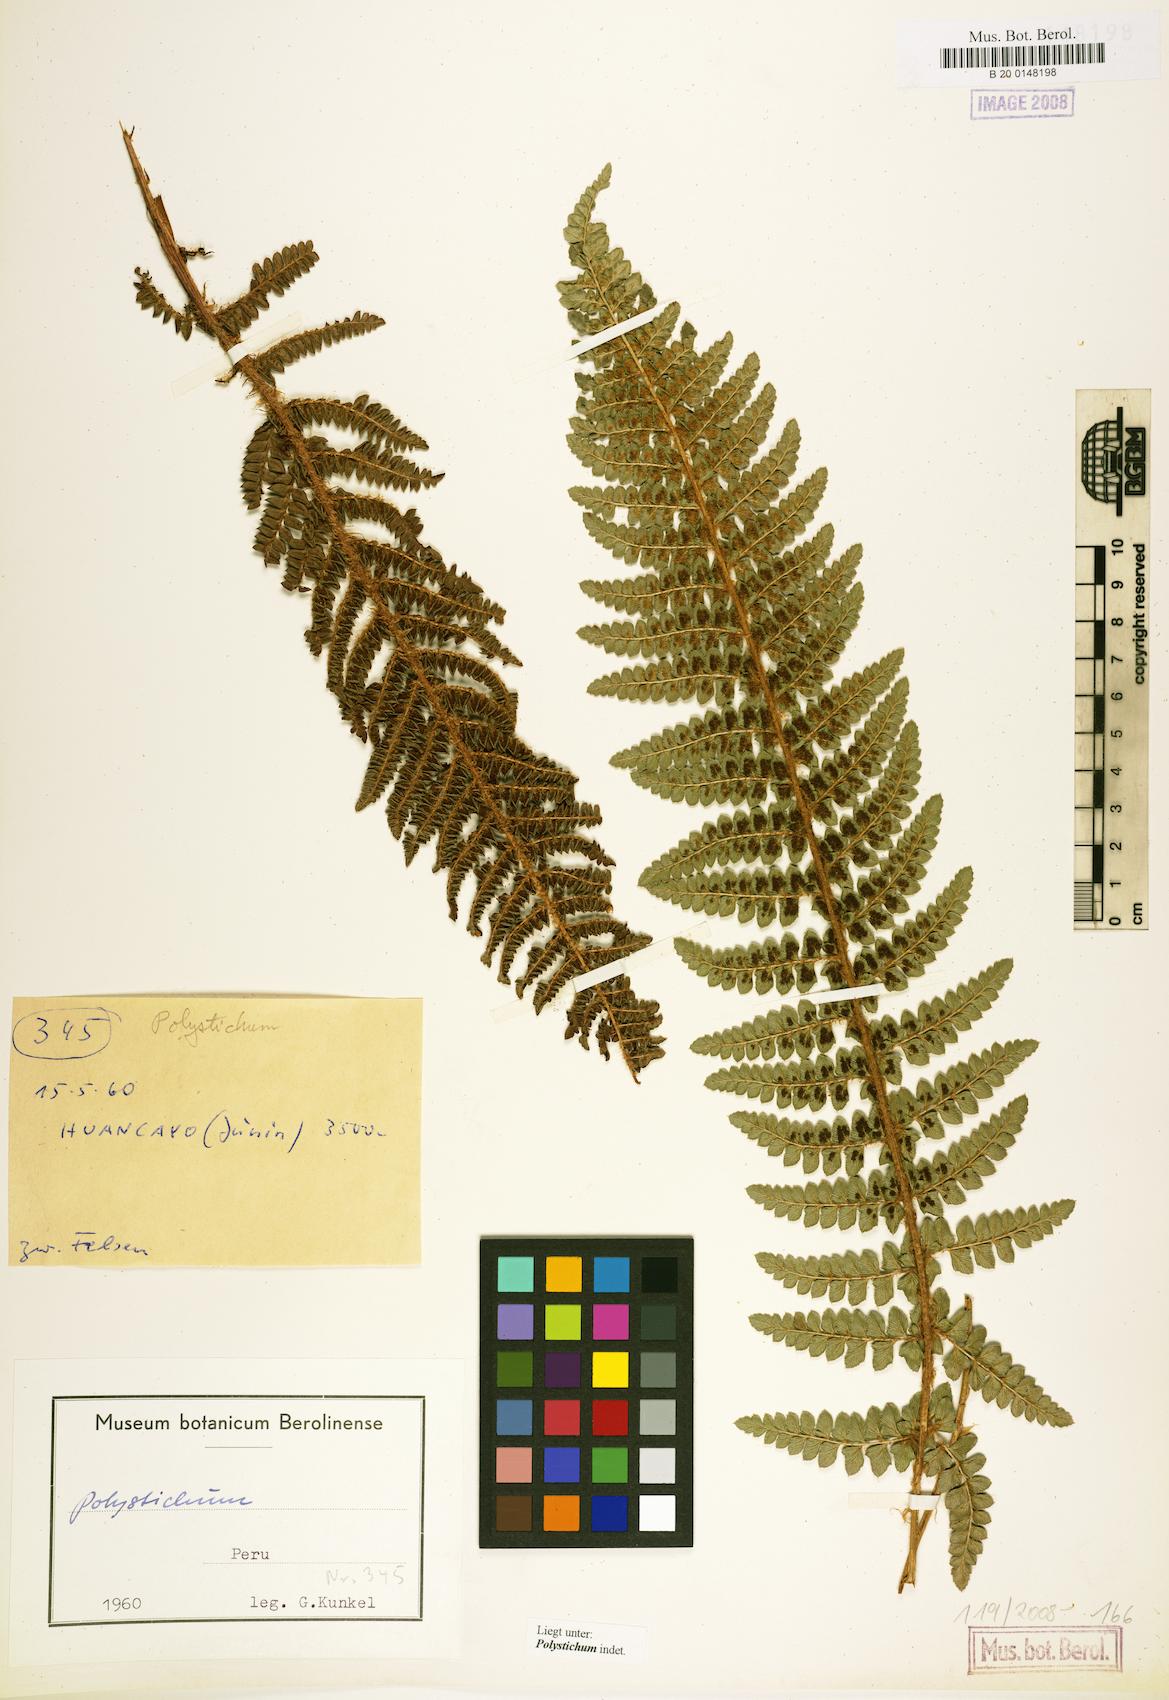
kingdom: Plantae
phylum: Tracheophyta
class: Polypodiopsida
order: Polypodiales
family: Dryopteridaceae
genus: Polystichum
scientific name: Polystichum
